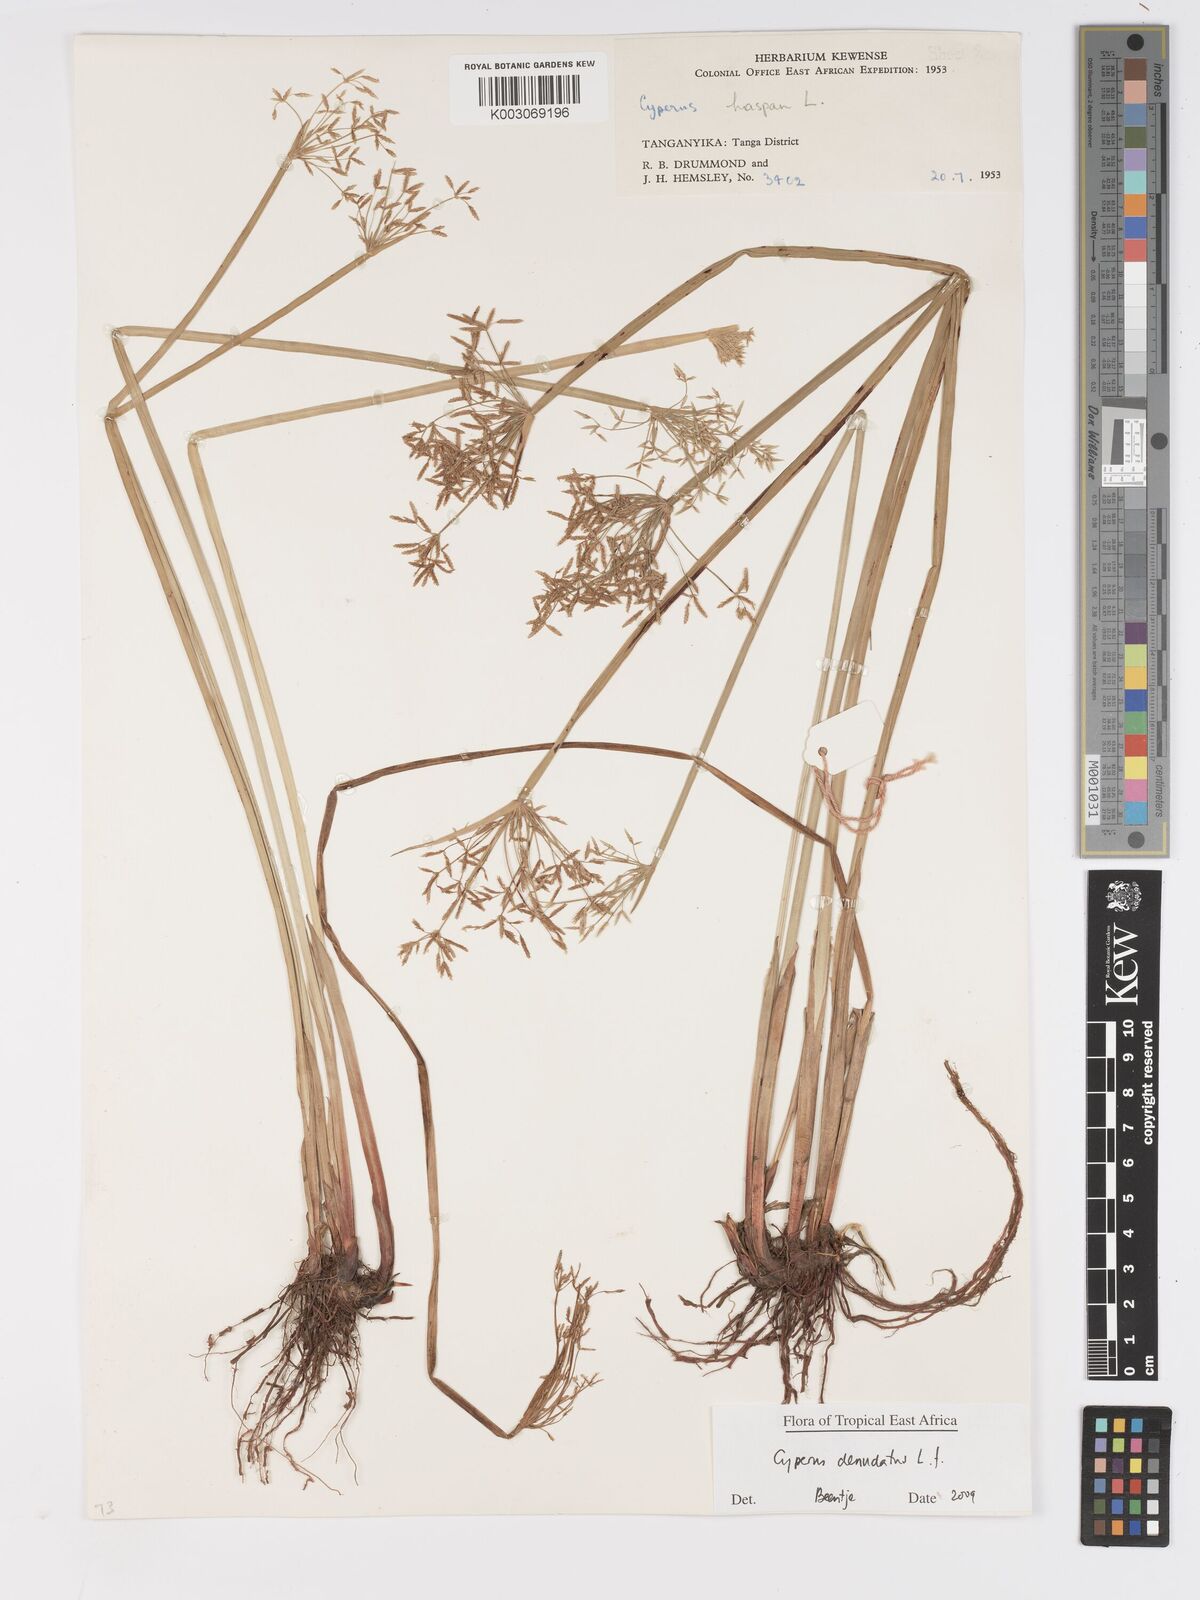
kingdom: Plantae
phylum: Tracheophyta
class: Liliopsida
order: Poales
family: Cyperaceae
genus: Cyperus
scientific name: Cyperus denudatus
